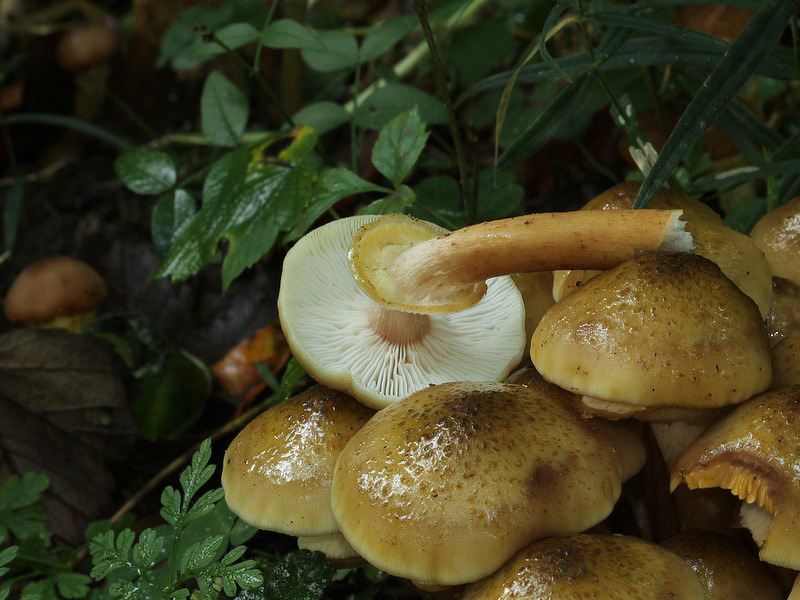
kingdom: Fungi
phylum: Basidiomycota
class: Agaricomycetes
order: Agaricales
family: Physalacriaceae
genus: Armillaria
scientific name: Armillaria mellea
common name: ægte honningsvamp
